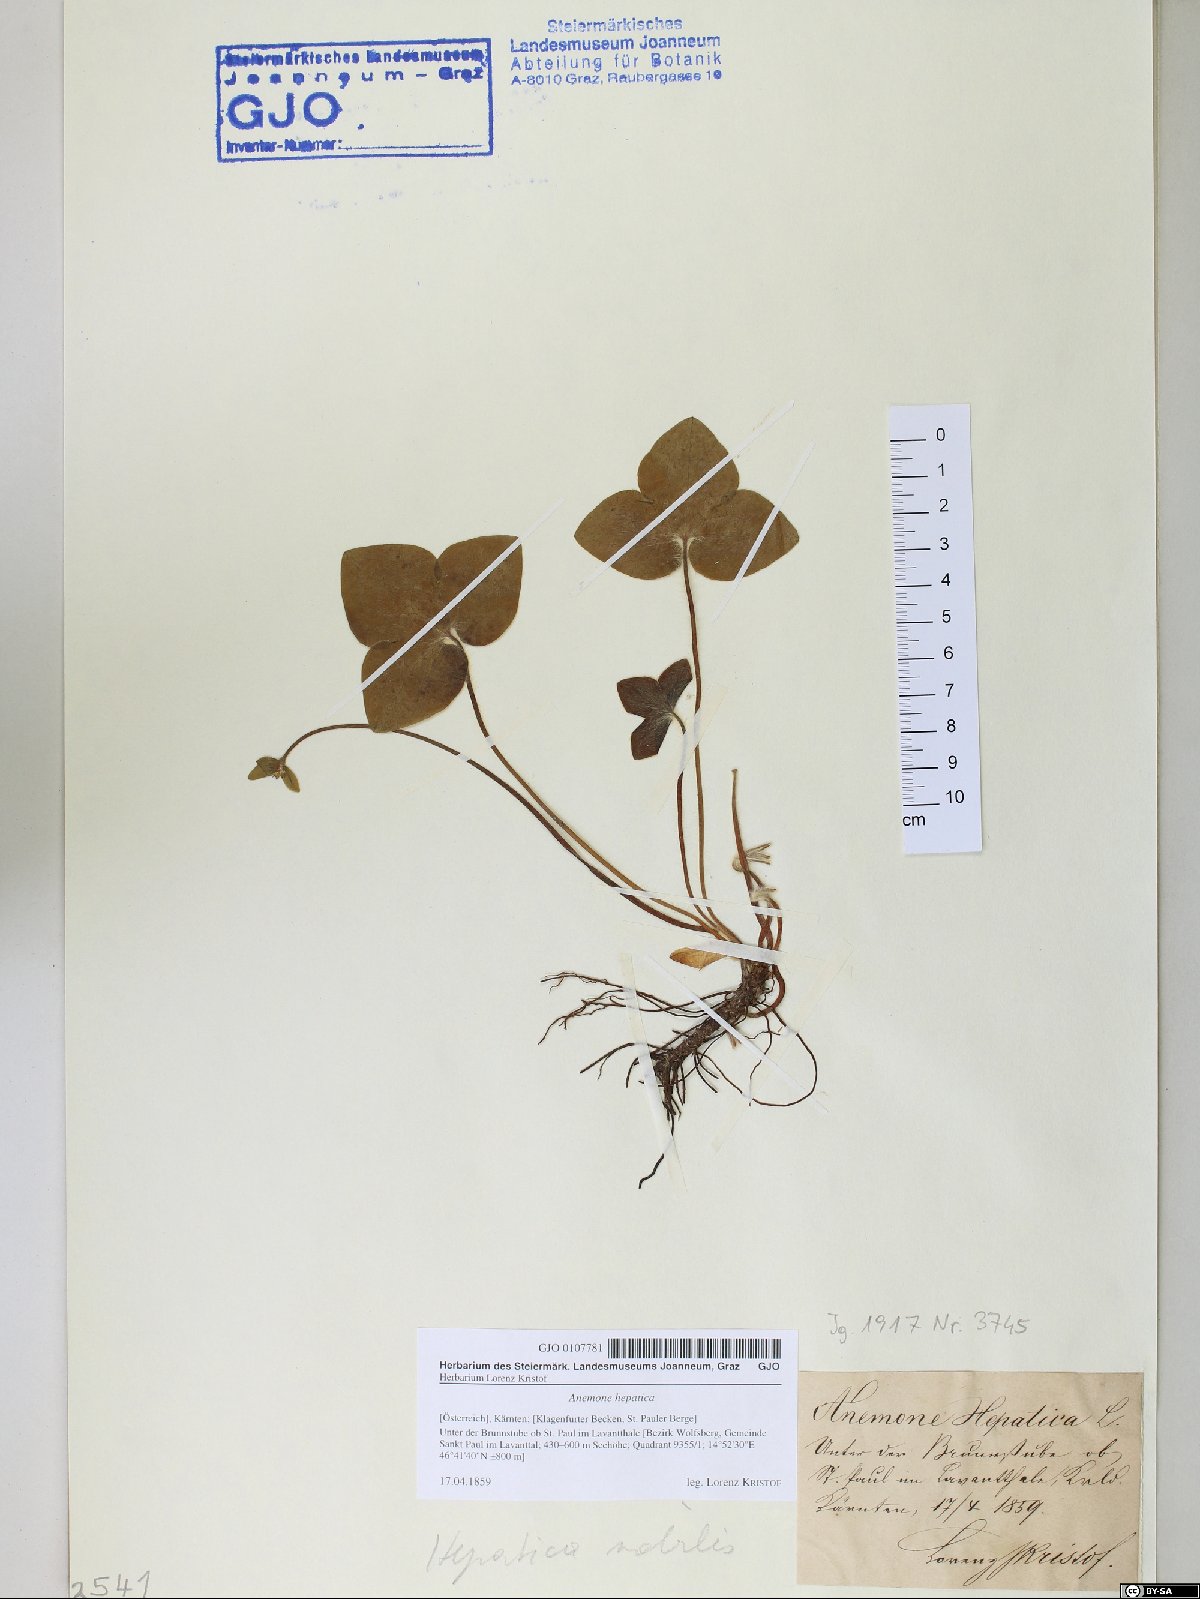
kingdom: Plantae
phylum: Tracheophyta
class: Magnoliopsida
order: Ranunculales
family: Ranunculaceae
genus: Hepatica
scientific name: Hepatica nobilis
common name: Liverleaf
